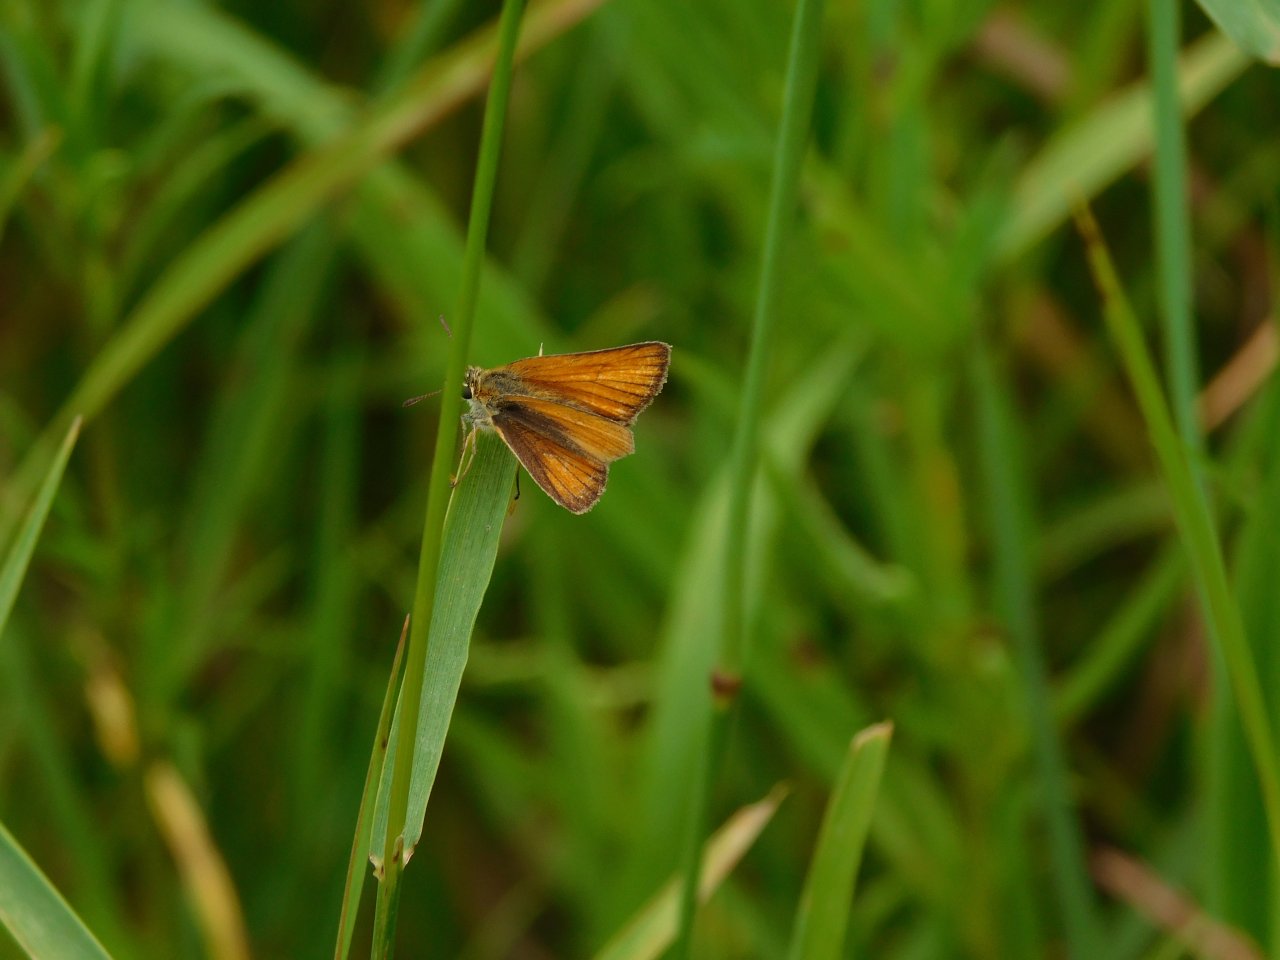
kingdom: Animalia
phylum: Arthropoda
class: Insecta
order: Lepidoptera
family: Hesperiidae
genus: Thymelicus
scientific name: Thymelicus lineola
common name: European Skipper
